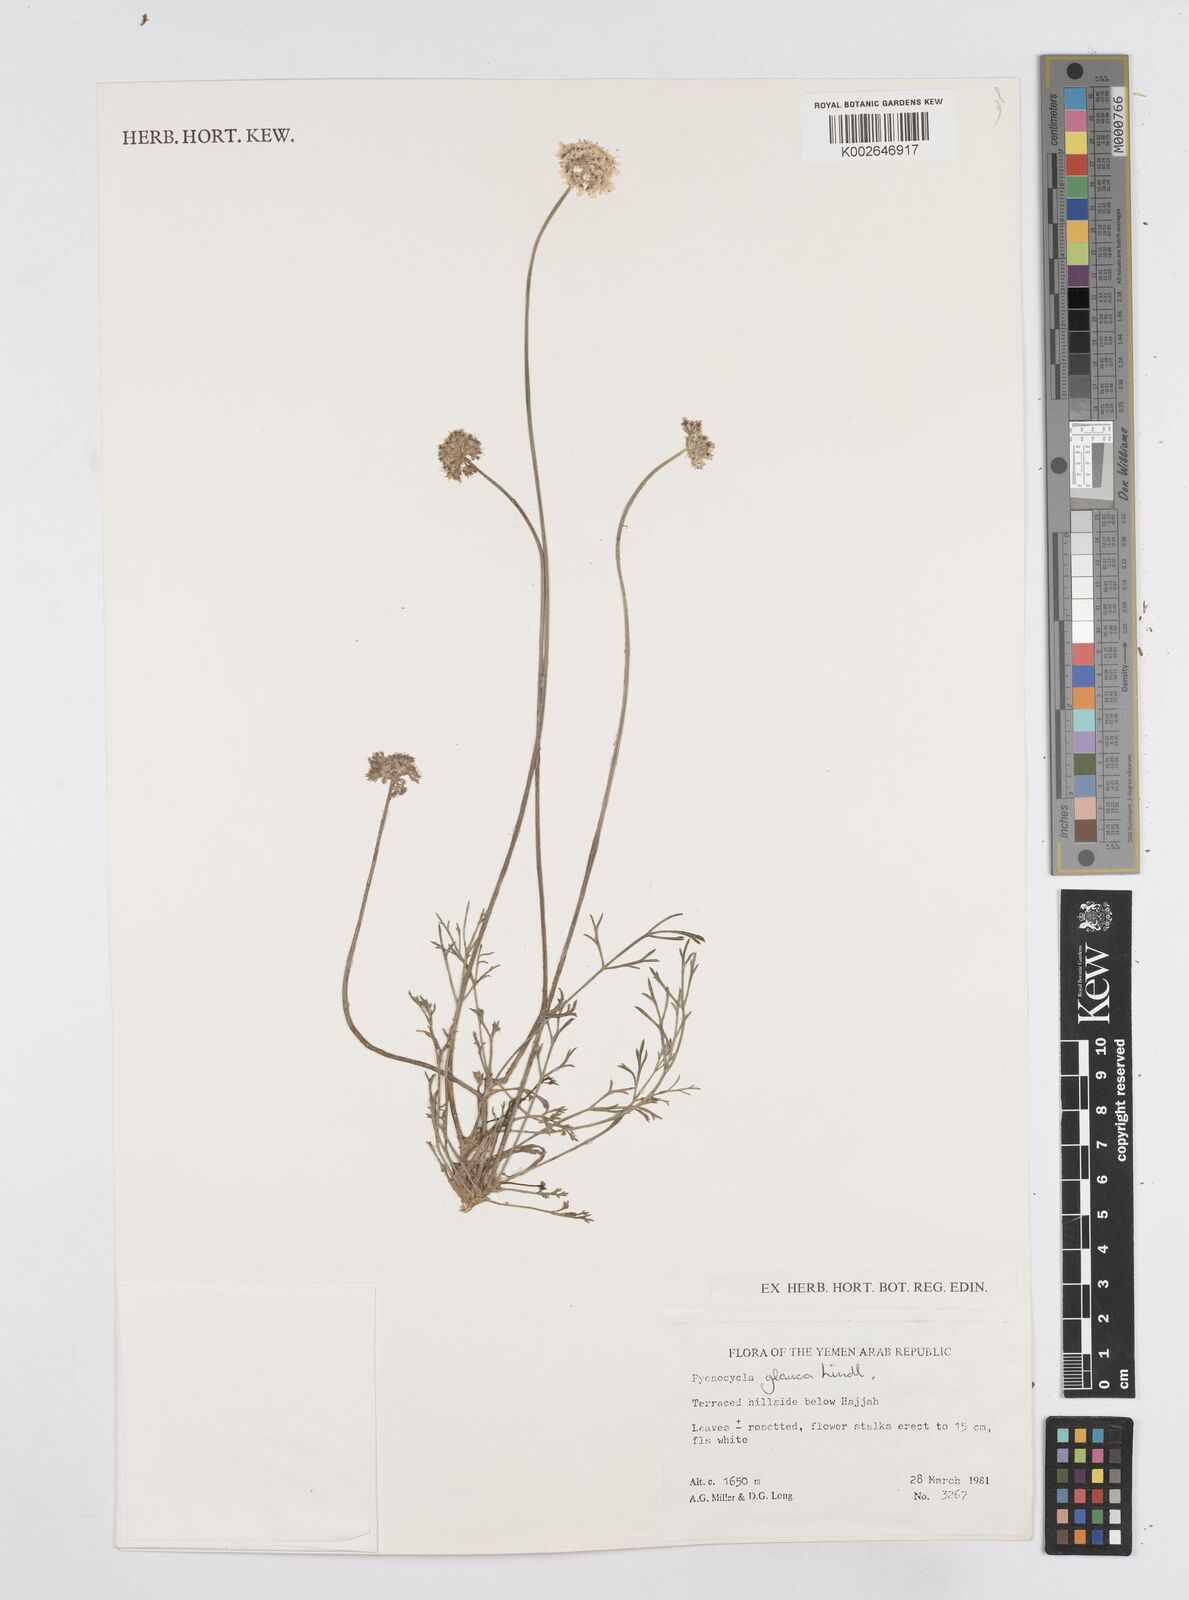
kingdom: Plantae
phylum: Tracheophyta
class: Magnoliopsida
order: Apiales
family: Apiaceae
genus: Pycnocycla
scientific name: Pycnocycla glauca
